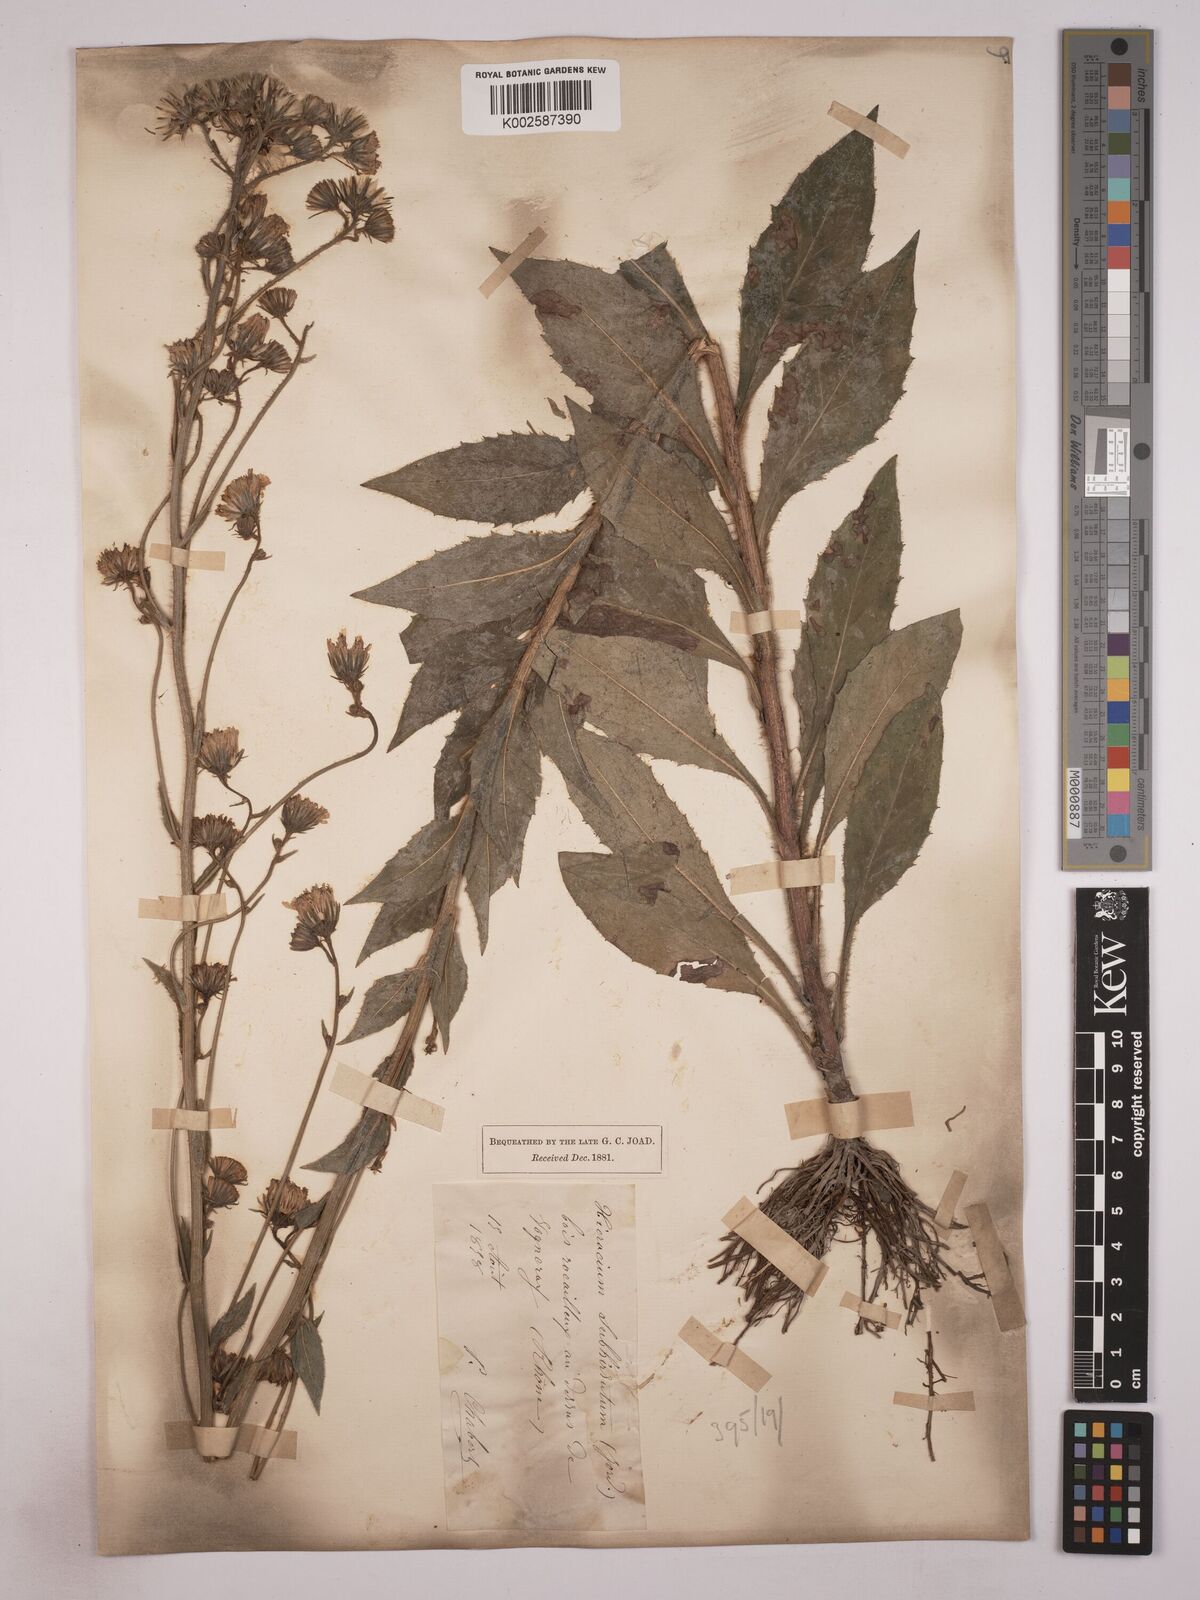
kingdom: Plantae
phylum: Tracheophyta
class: Magnoliopsida
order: Asterales
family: Asteraceae
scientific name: Asteraceae
